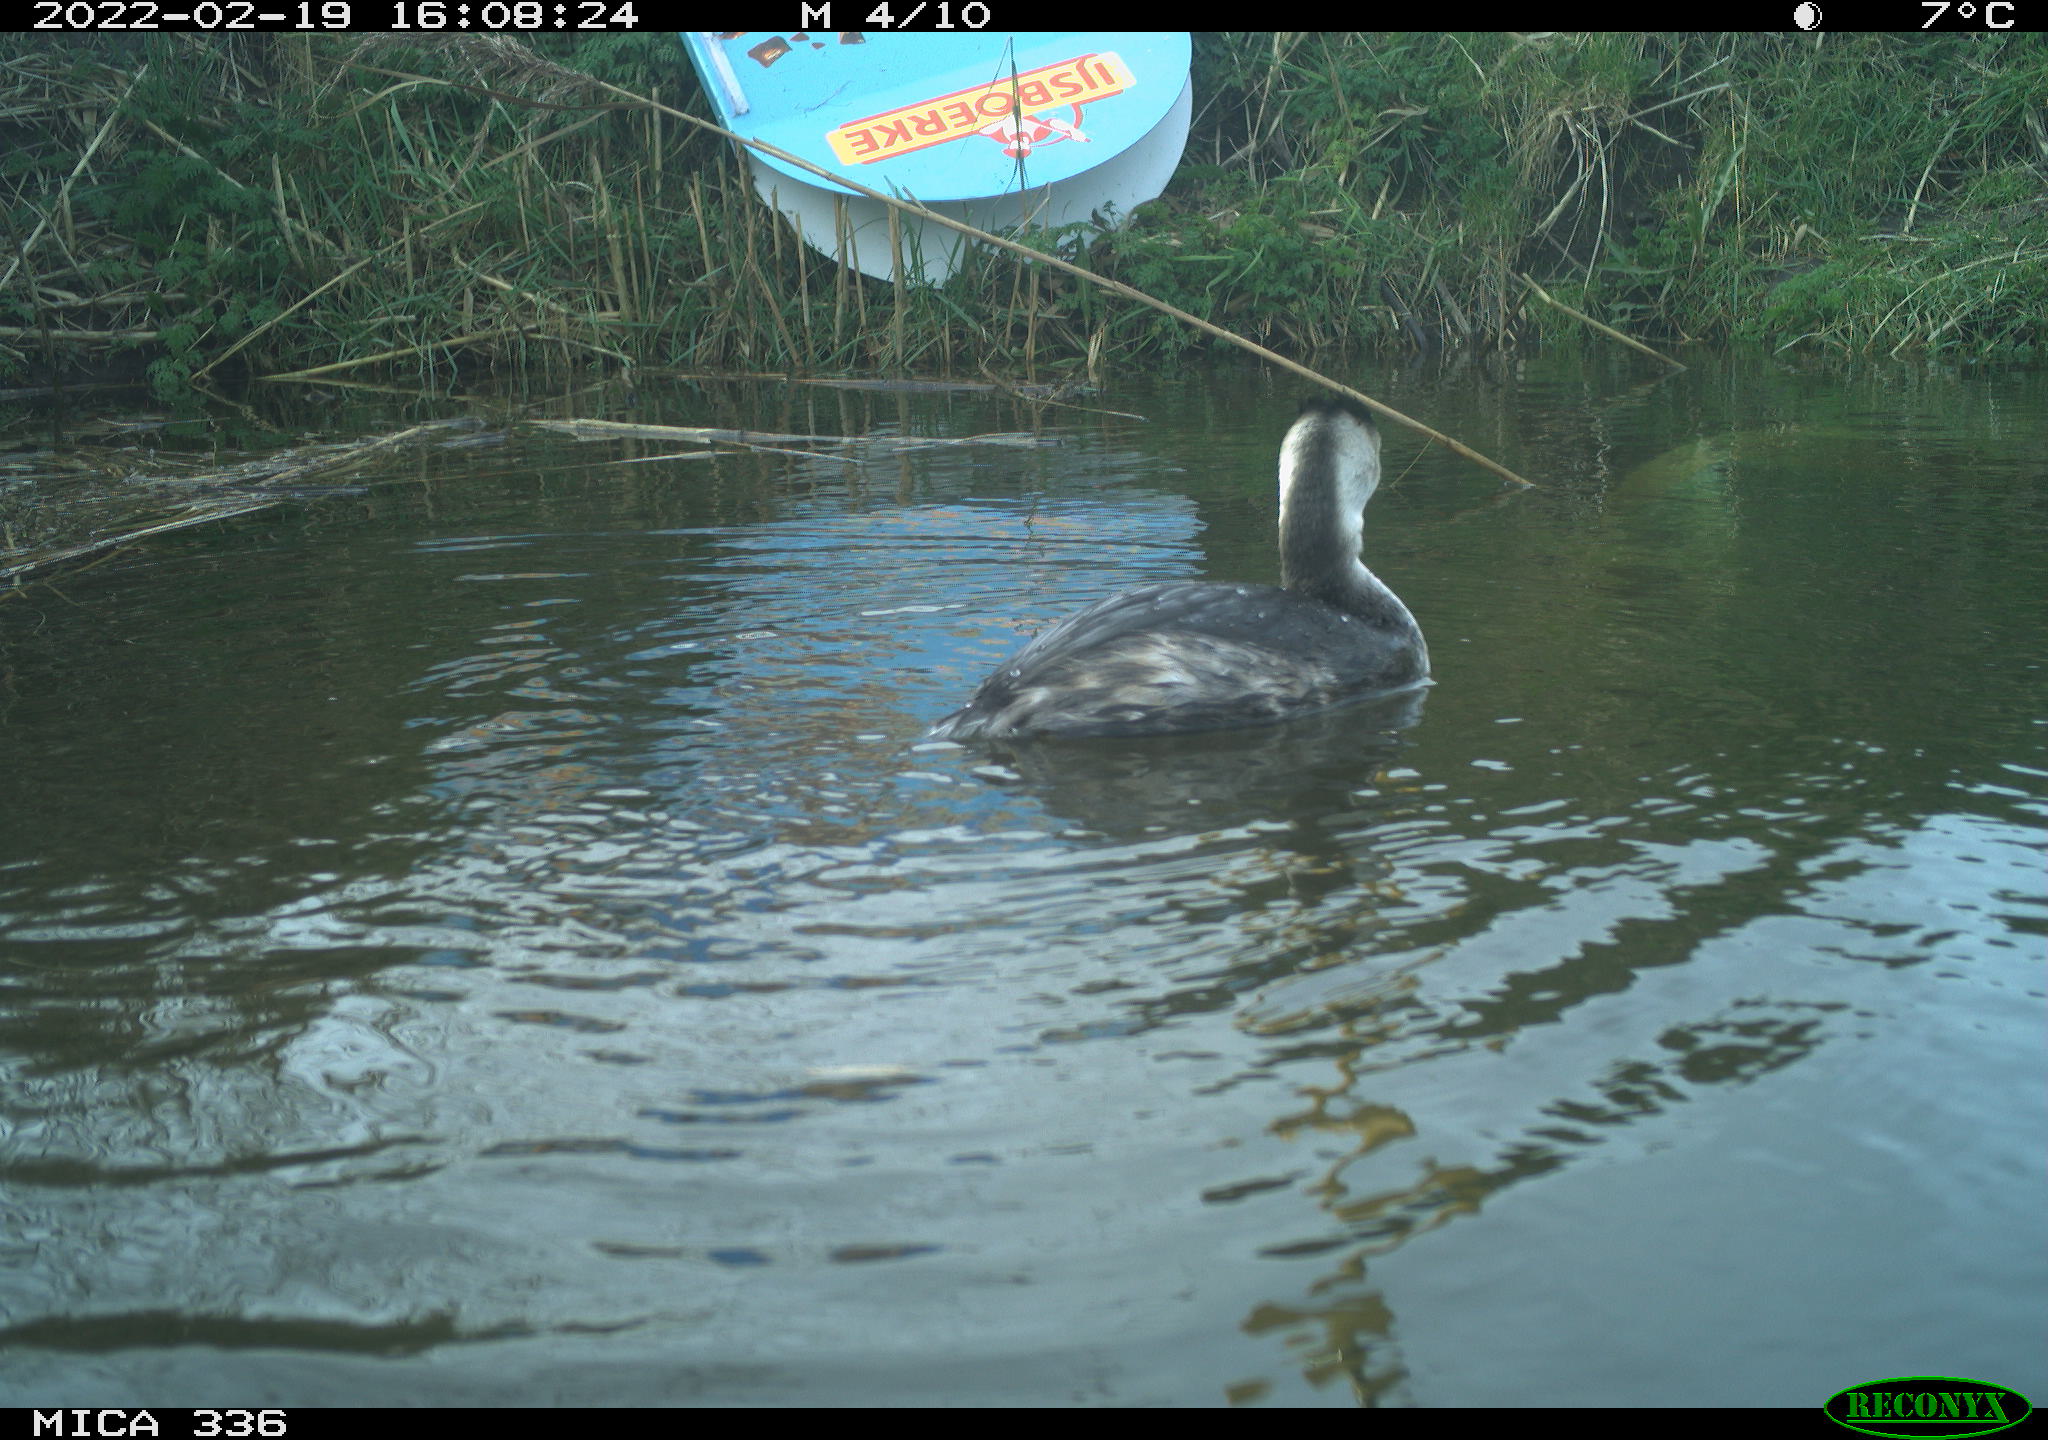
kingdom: Animalia
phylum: Chordata
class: Aves
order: Podicipediformes
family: Podicipedidae
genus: Podiceps
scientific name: Podiceps cristatus
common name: Great crested grebe
